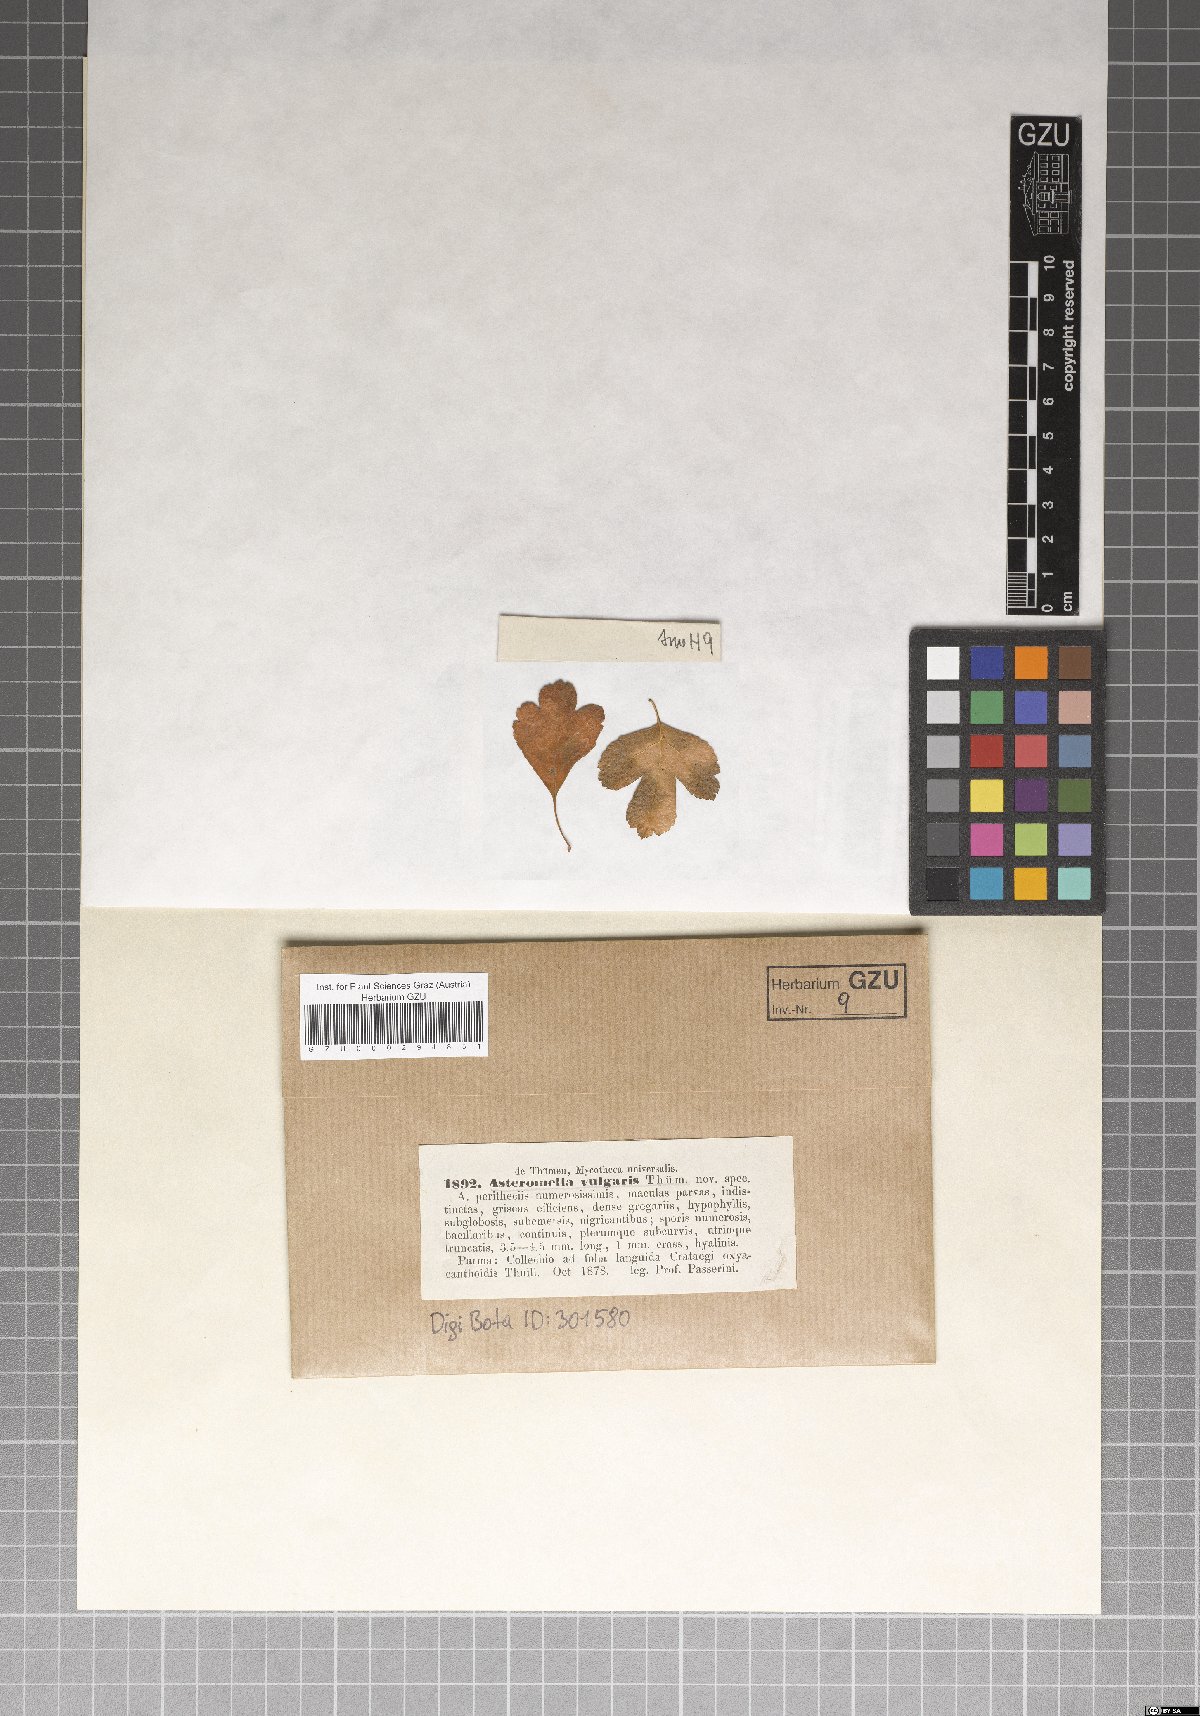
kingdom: Fungi
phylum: Ascomycota
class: Dothideomycetes
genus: Asteromella
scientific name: Asteromella vulgaris
